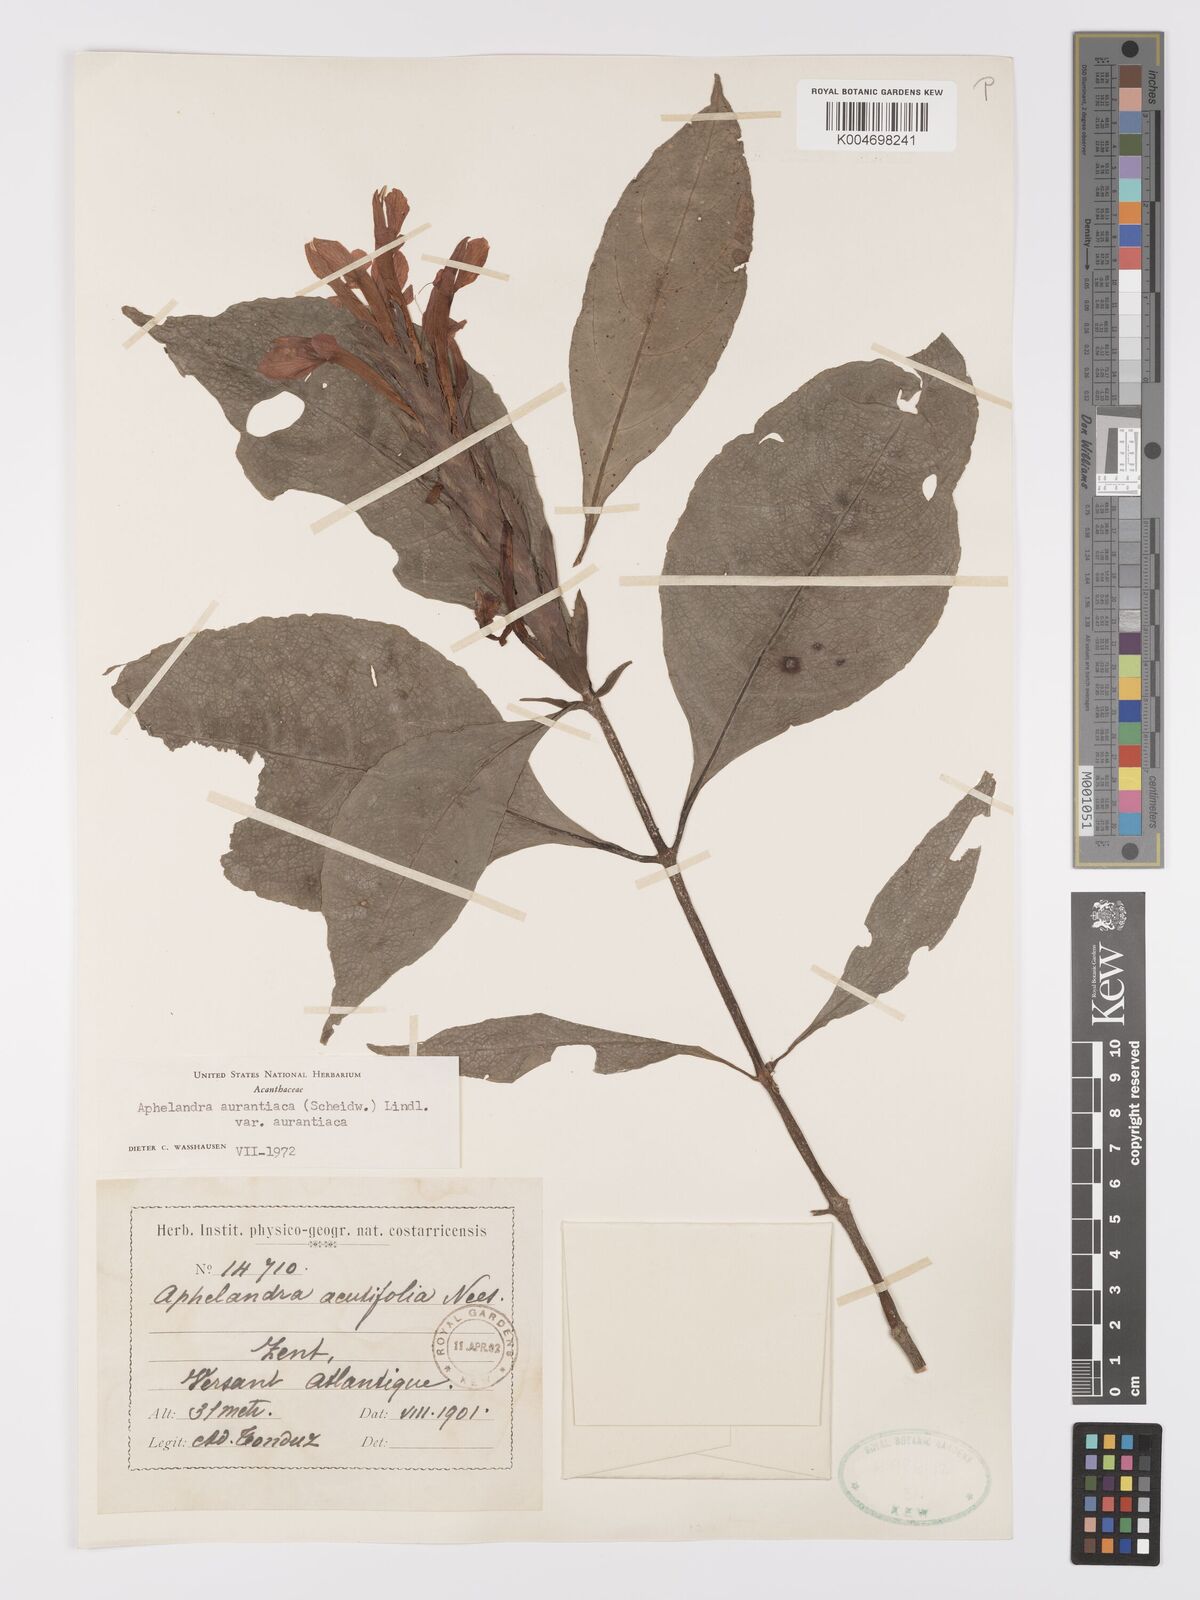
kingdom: Plantae
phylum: Tracheophyta
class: Magnoliopsida
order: Lamiales
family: Acanthaceae
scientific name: Acanthaceae
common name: Acanthaceae
